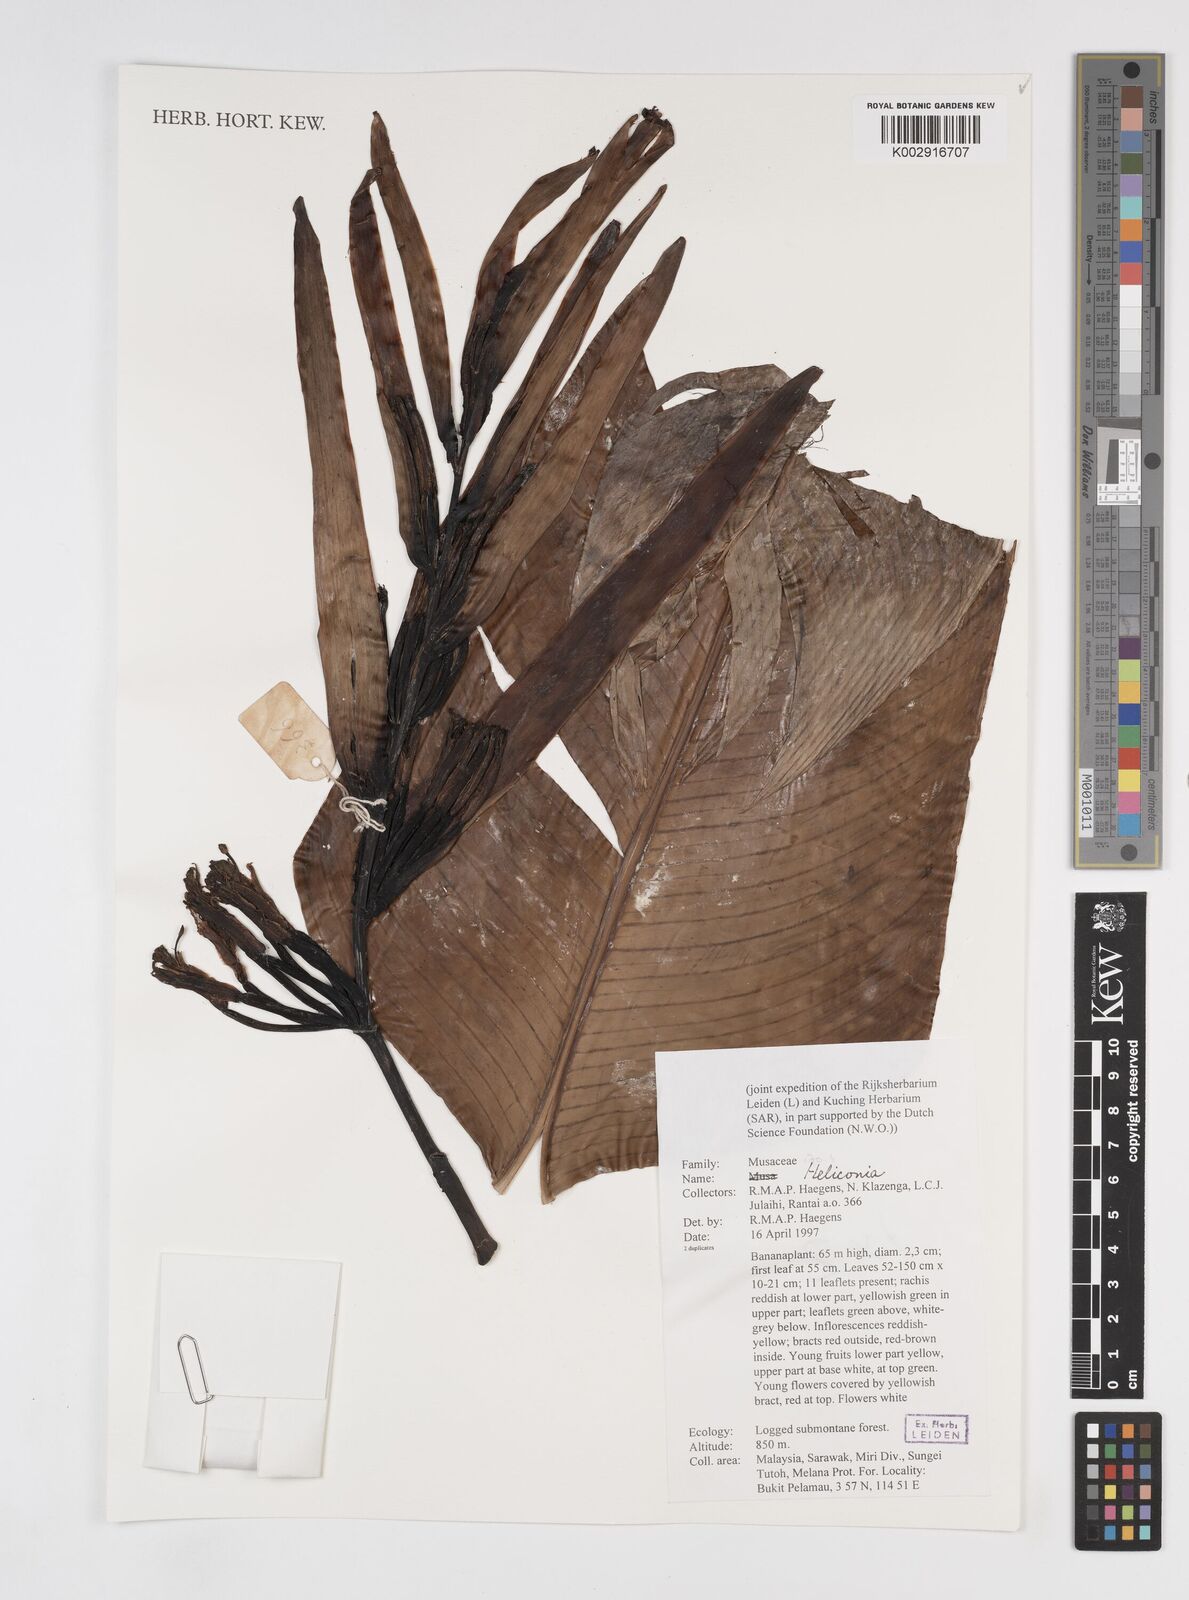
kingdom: Plantae
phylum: Tracheophyta
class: Liliopsida
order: Zingiberales
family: Heliconiaceae
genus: Heliconia
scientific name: Heliconia
